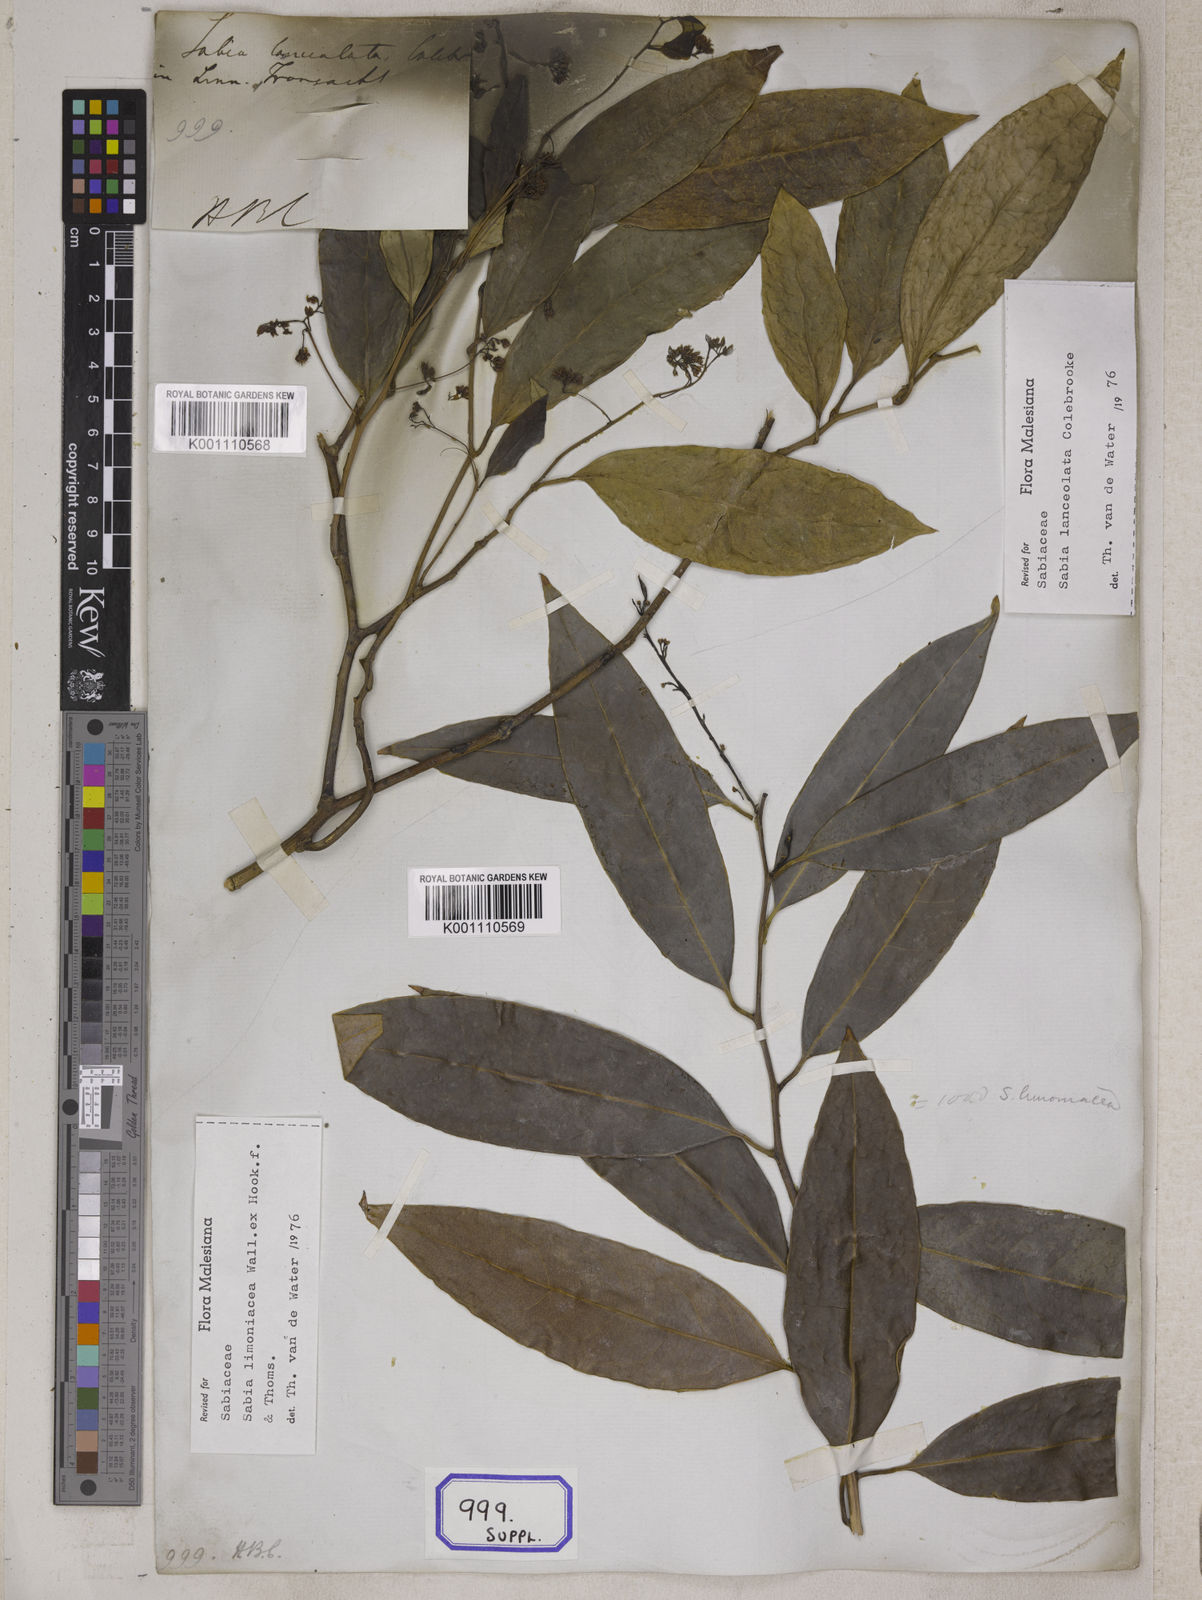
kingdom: Plantae
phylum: Tracheophyta
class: Magnoliopsida
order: Proteales
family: Sabiaceae
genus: Sabia
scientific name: Sabia lanceolata
